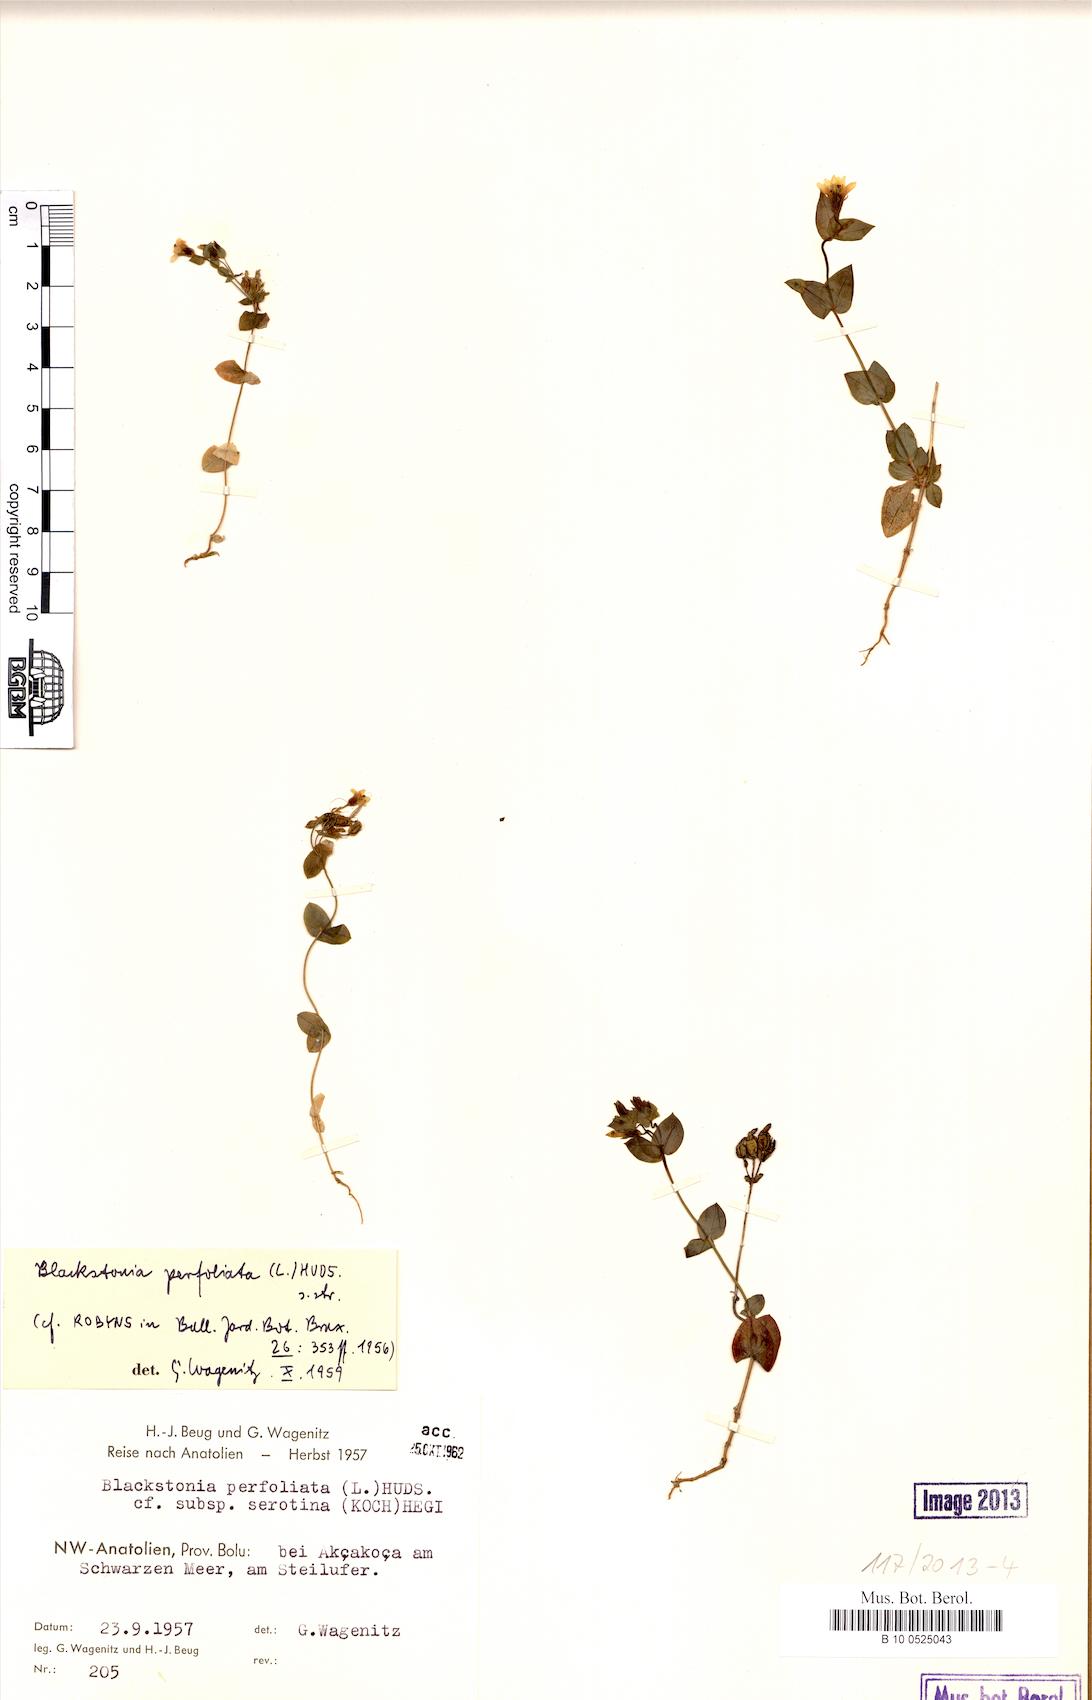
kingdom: Plantae
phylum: Tracheophyta
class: Magnoliopsida
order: Gentianales
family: Gentianaceae
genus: Blackstonia
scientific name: Blackstonia acuminata
